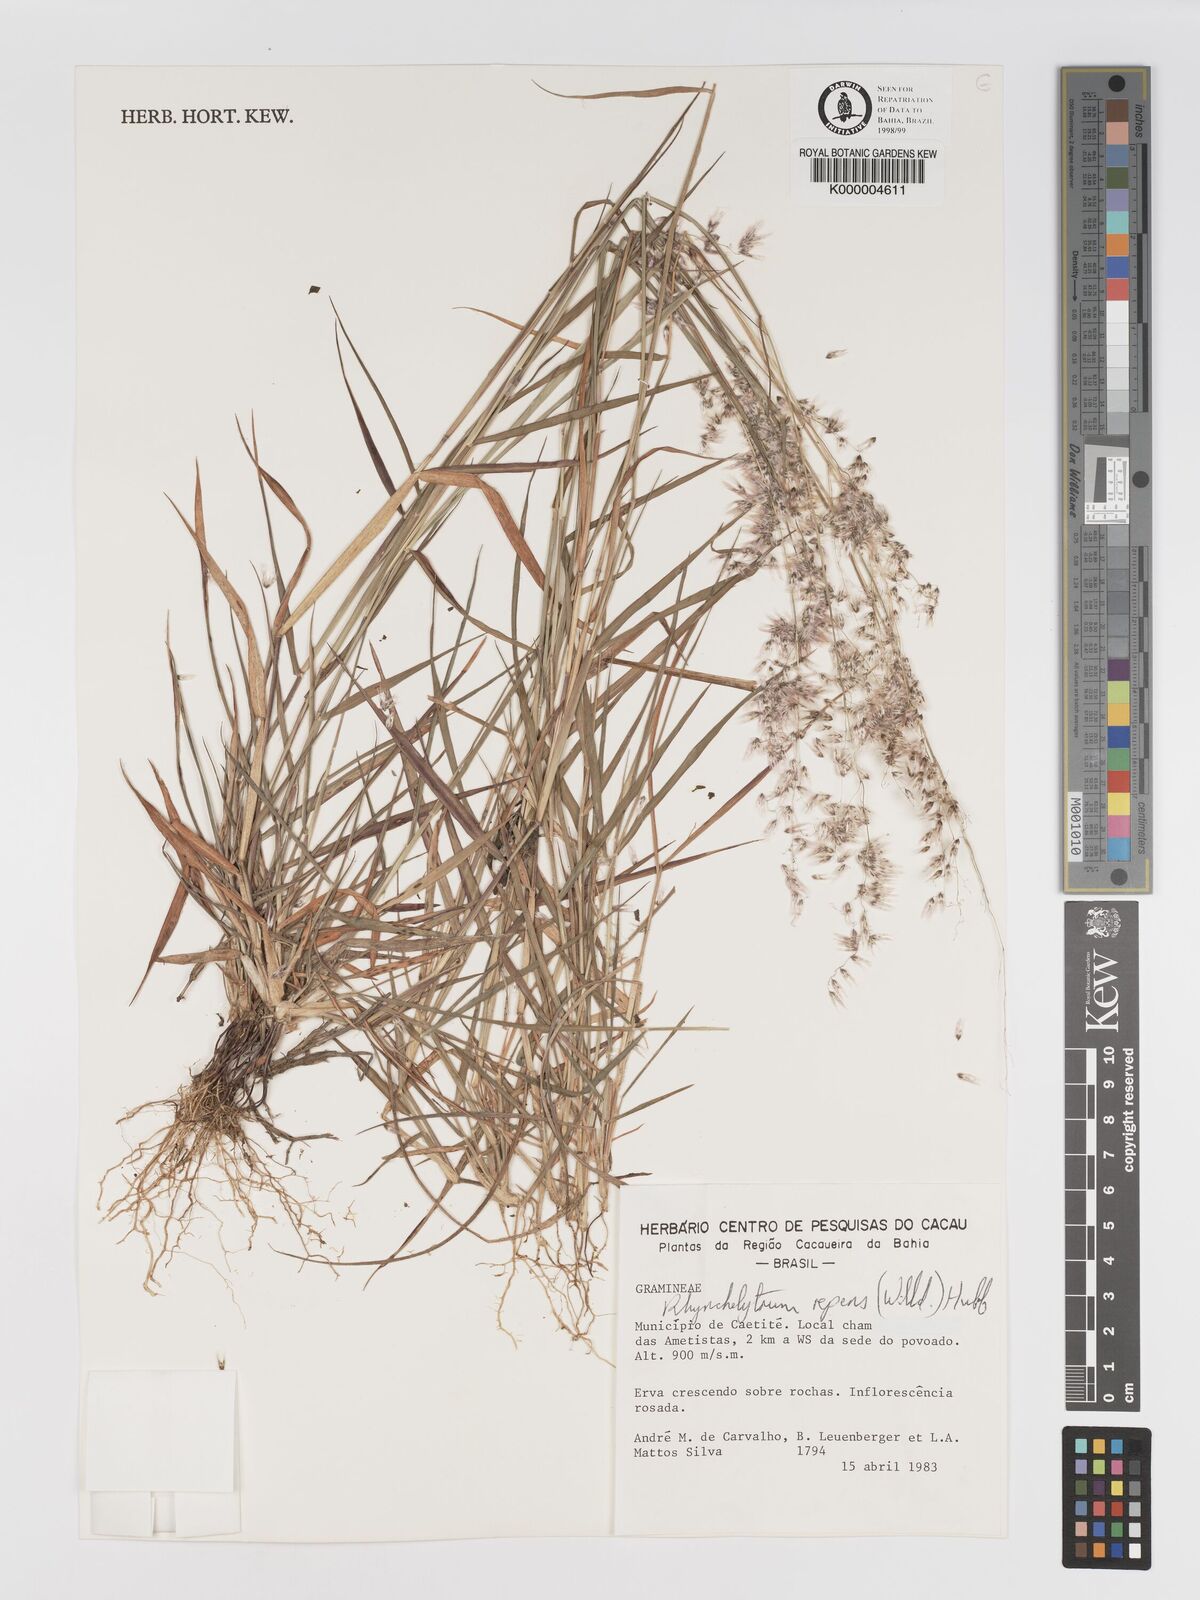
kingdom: Plantae
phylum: Tracheophyta
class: Liliopsida
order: Poales
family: Poaceae
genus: Melinis
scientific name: Melinis repens
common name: Rose natal grass
